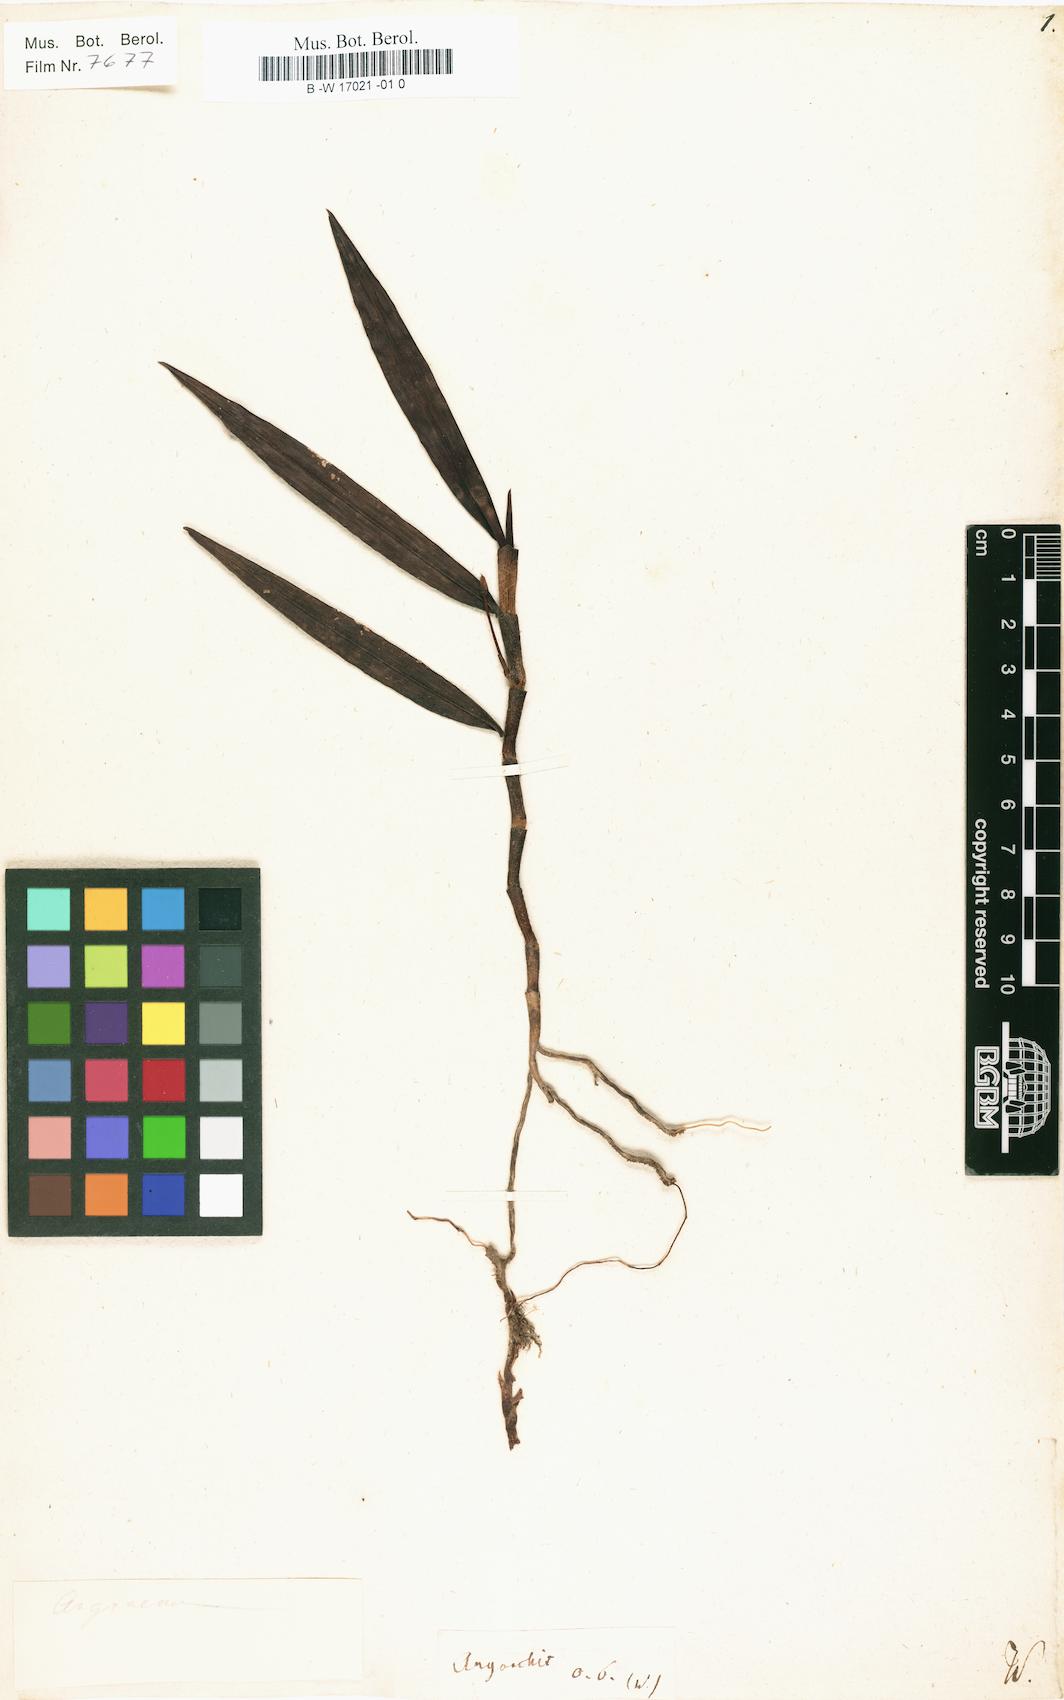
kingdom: Plantae
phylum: Tracheophyta
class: Liliopsida
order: Asparagales
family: Orchidaceae
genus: Angorchis
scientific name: Angorchis
